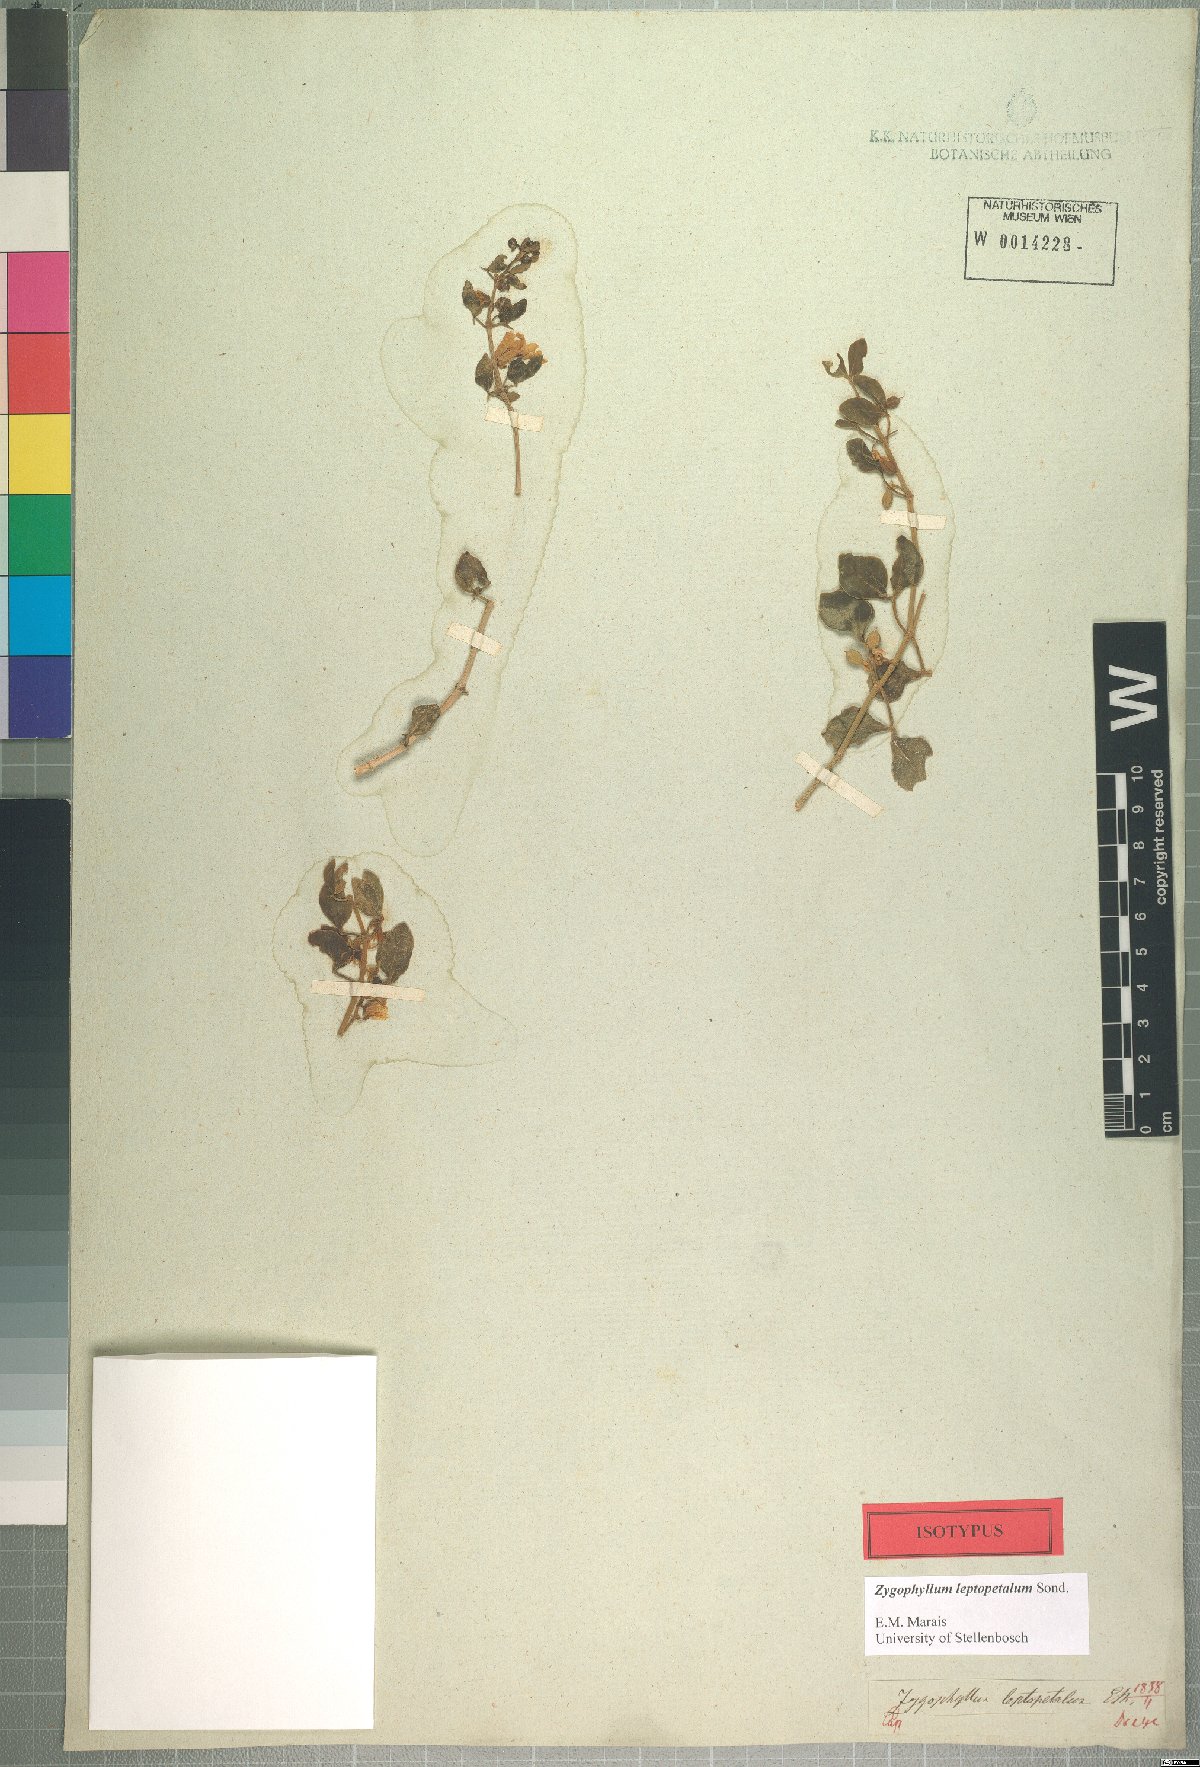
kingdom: Plantae
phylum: Tracheophyta
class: Magnoliopsida
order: Zygophyllales
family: Zygophyllaceae
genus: Roepera
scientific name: Roepera leptopetala
